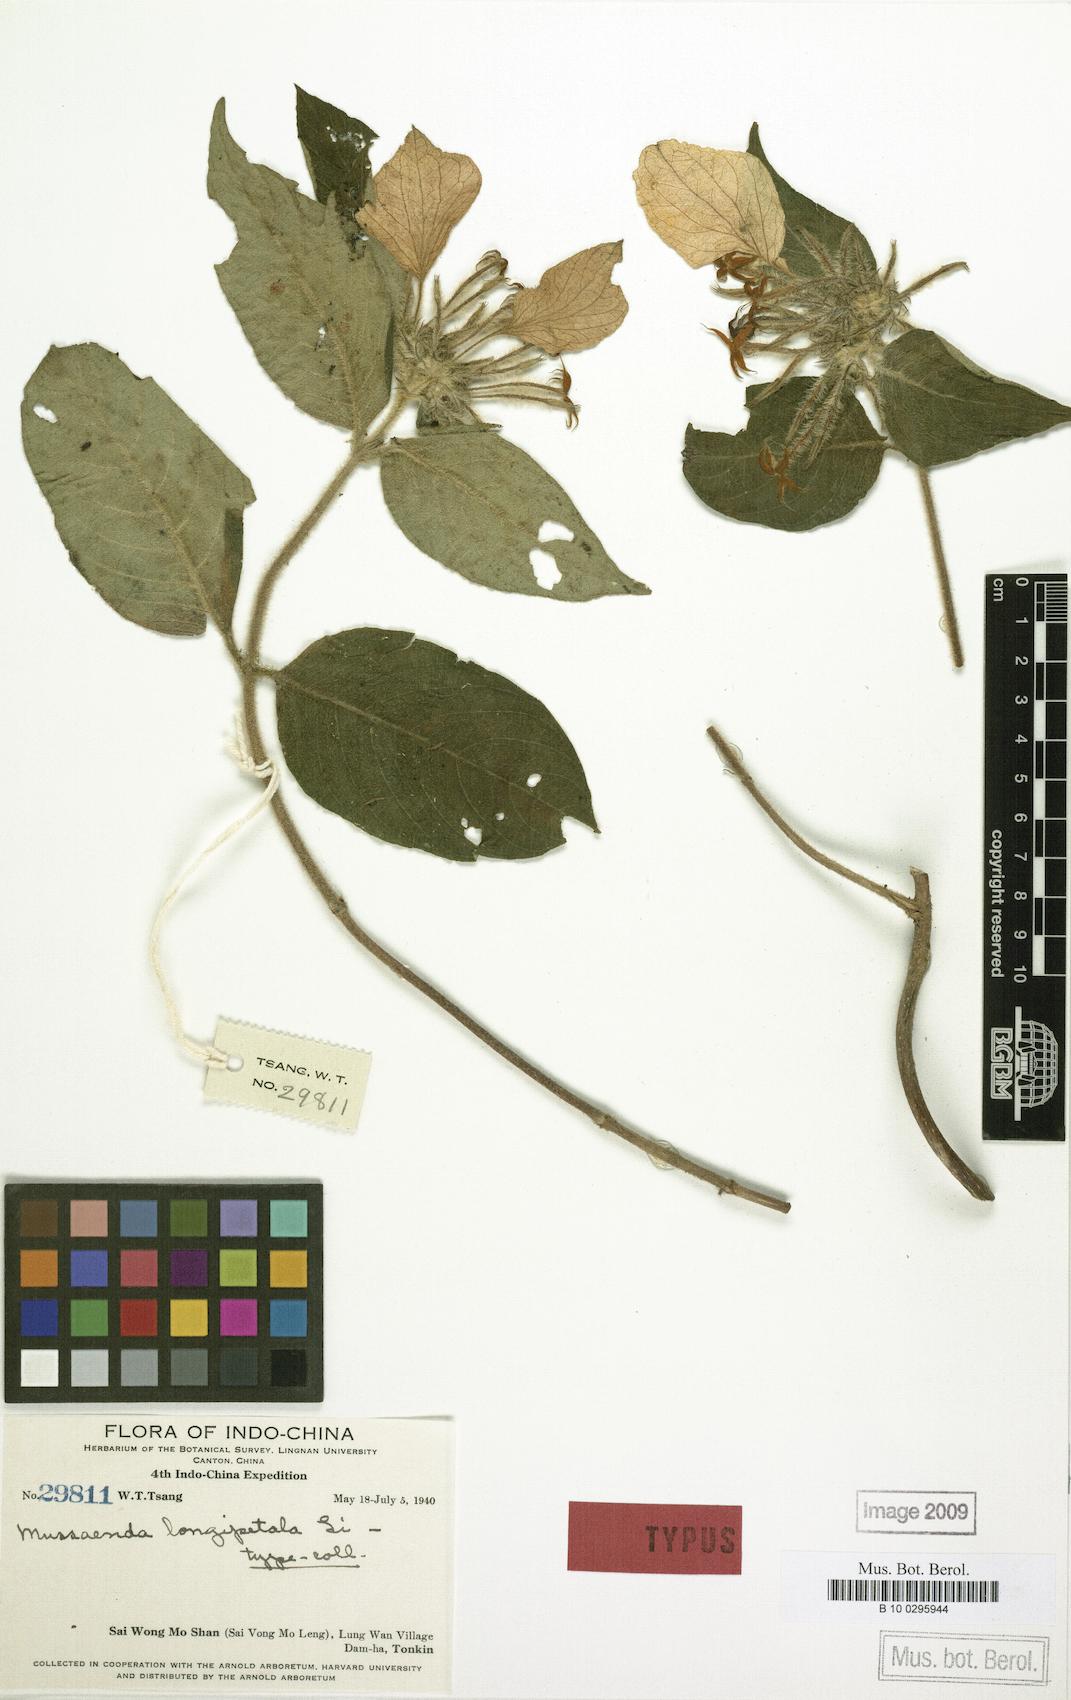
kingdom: Plantae
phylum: Tracheophyta
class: Magnoliopsida
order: Gentianales
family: Rubiaceae
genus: Mussaenda
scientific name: Mussaenda longipetala
